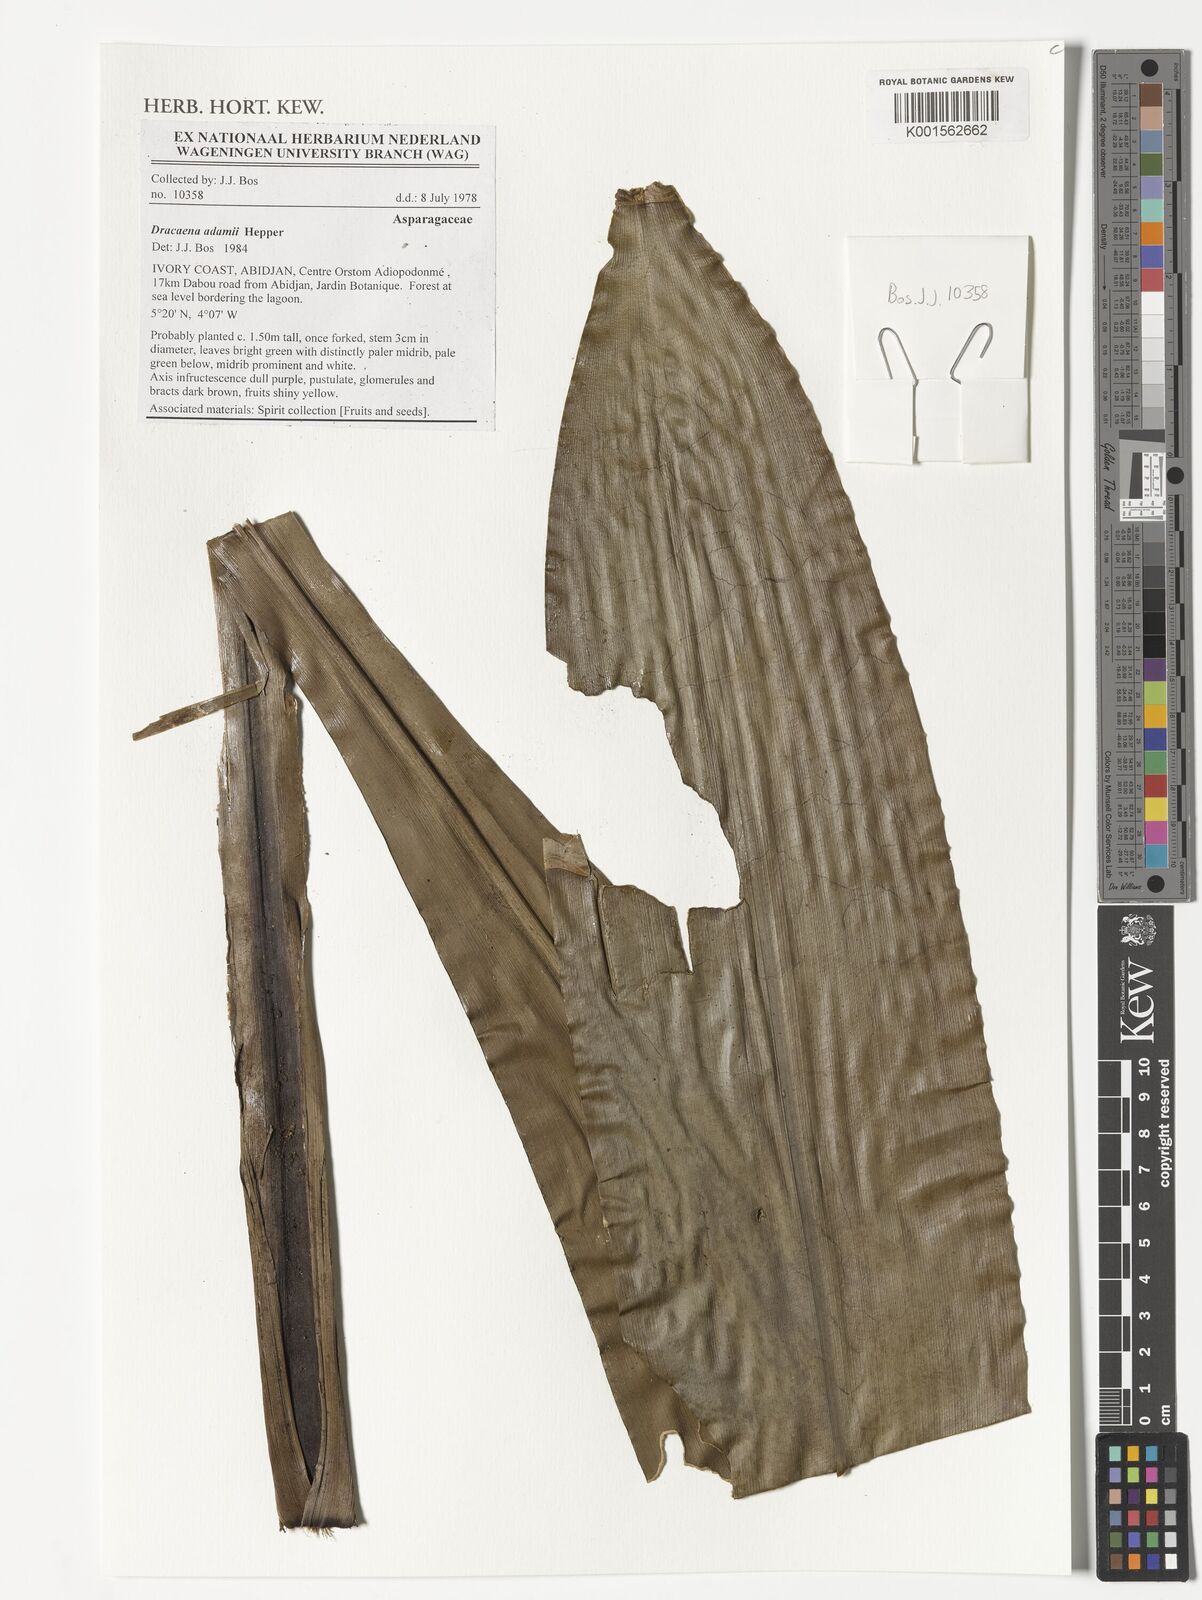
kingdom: Plantae
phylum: Tracheophyta
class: Liliopsida
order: Asparagales
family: Asparagaceae
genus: Dracaena
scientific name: Dracaena adamii
